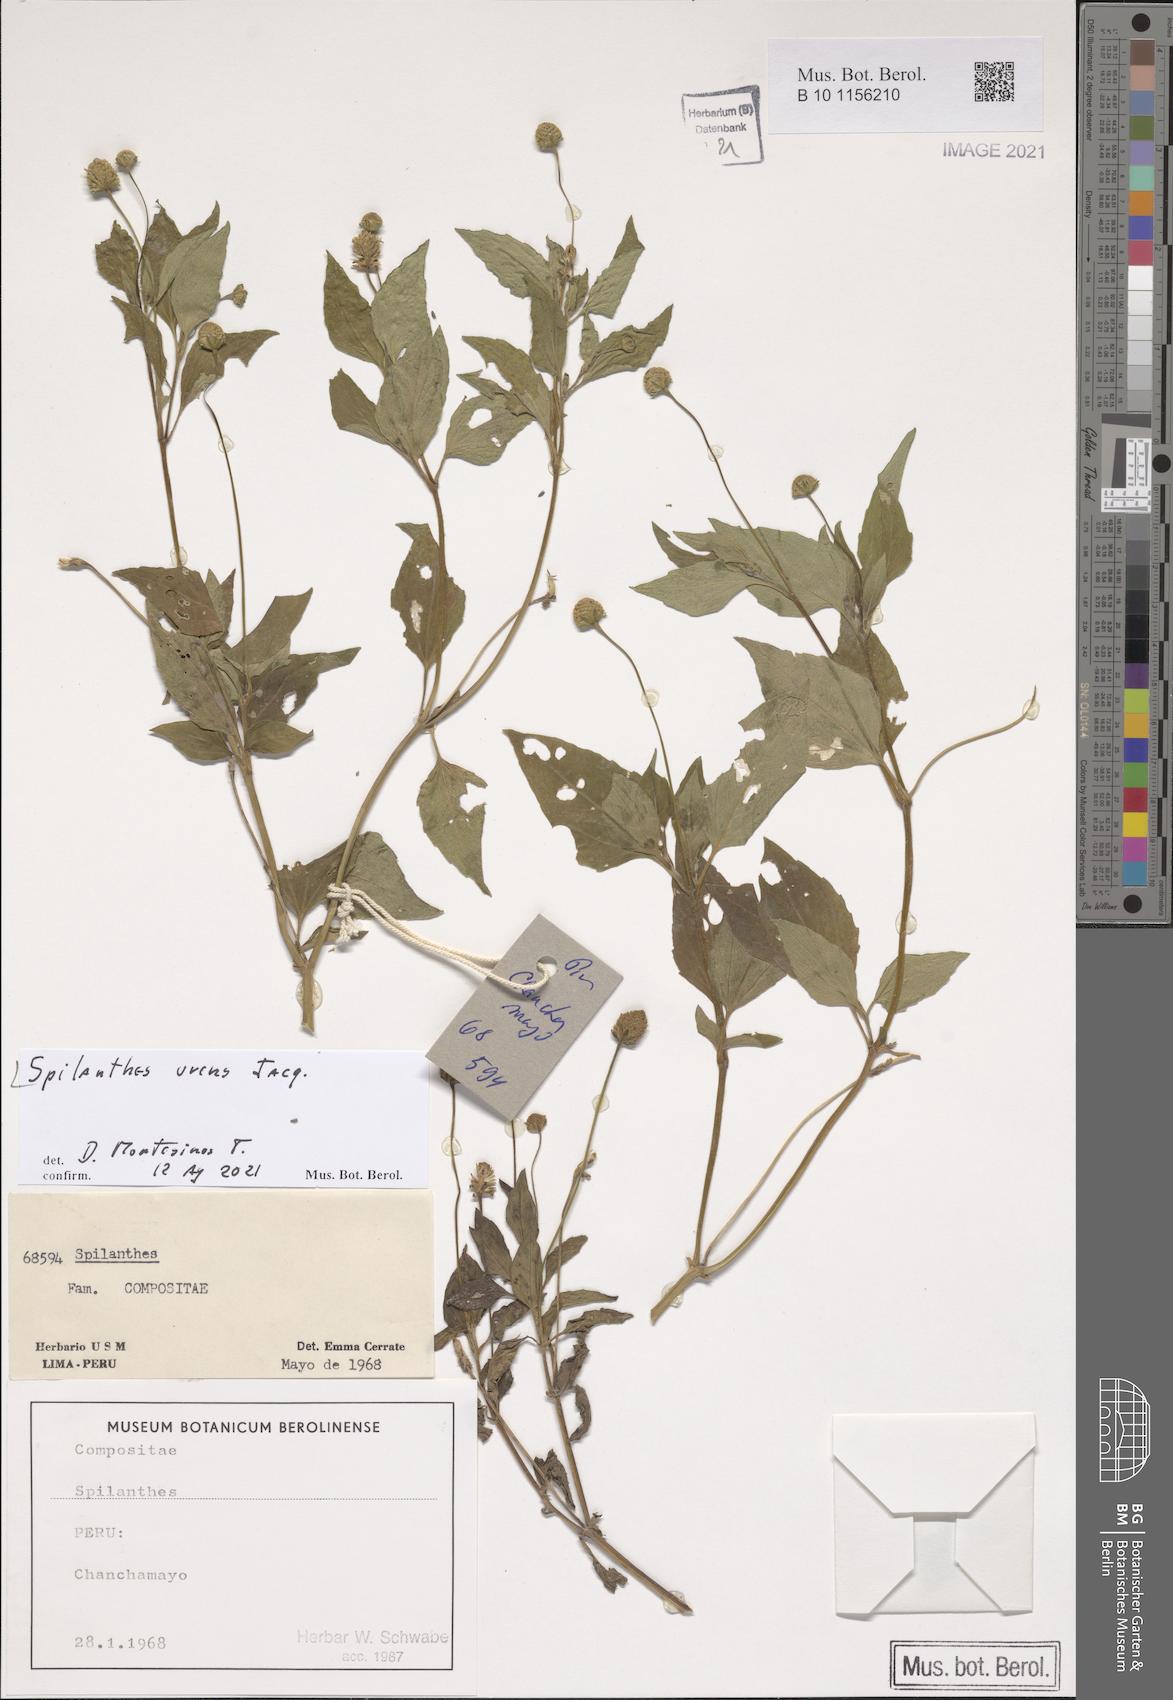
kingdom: Plantae
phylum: Tracheophyta
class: Magnoliopsida
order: Asterales
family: Asteraceae
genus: Spilanthes
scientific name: Spilanthes urens
